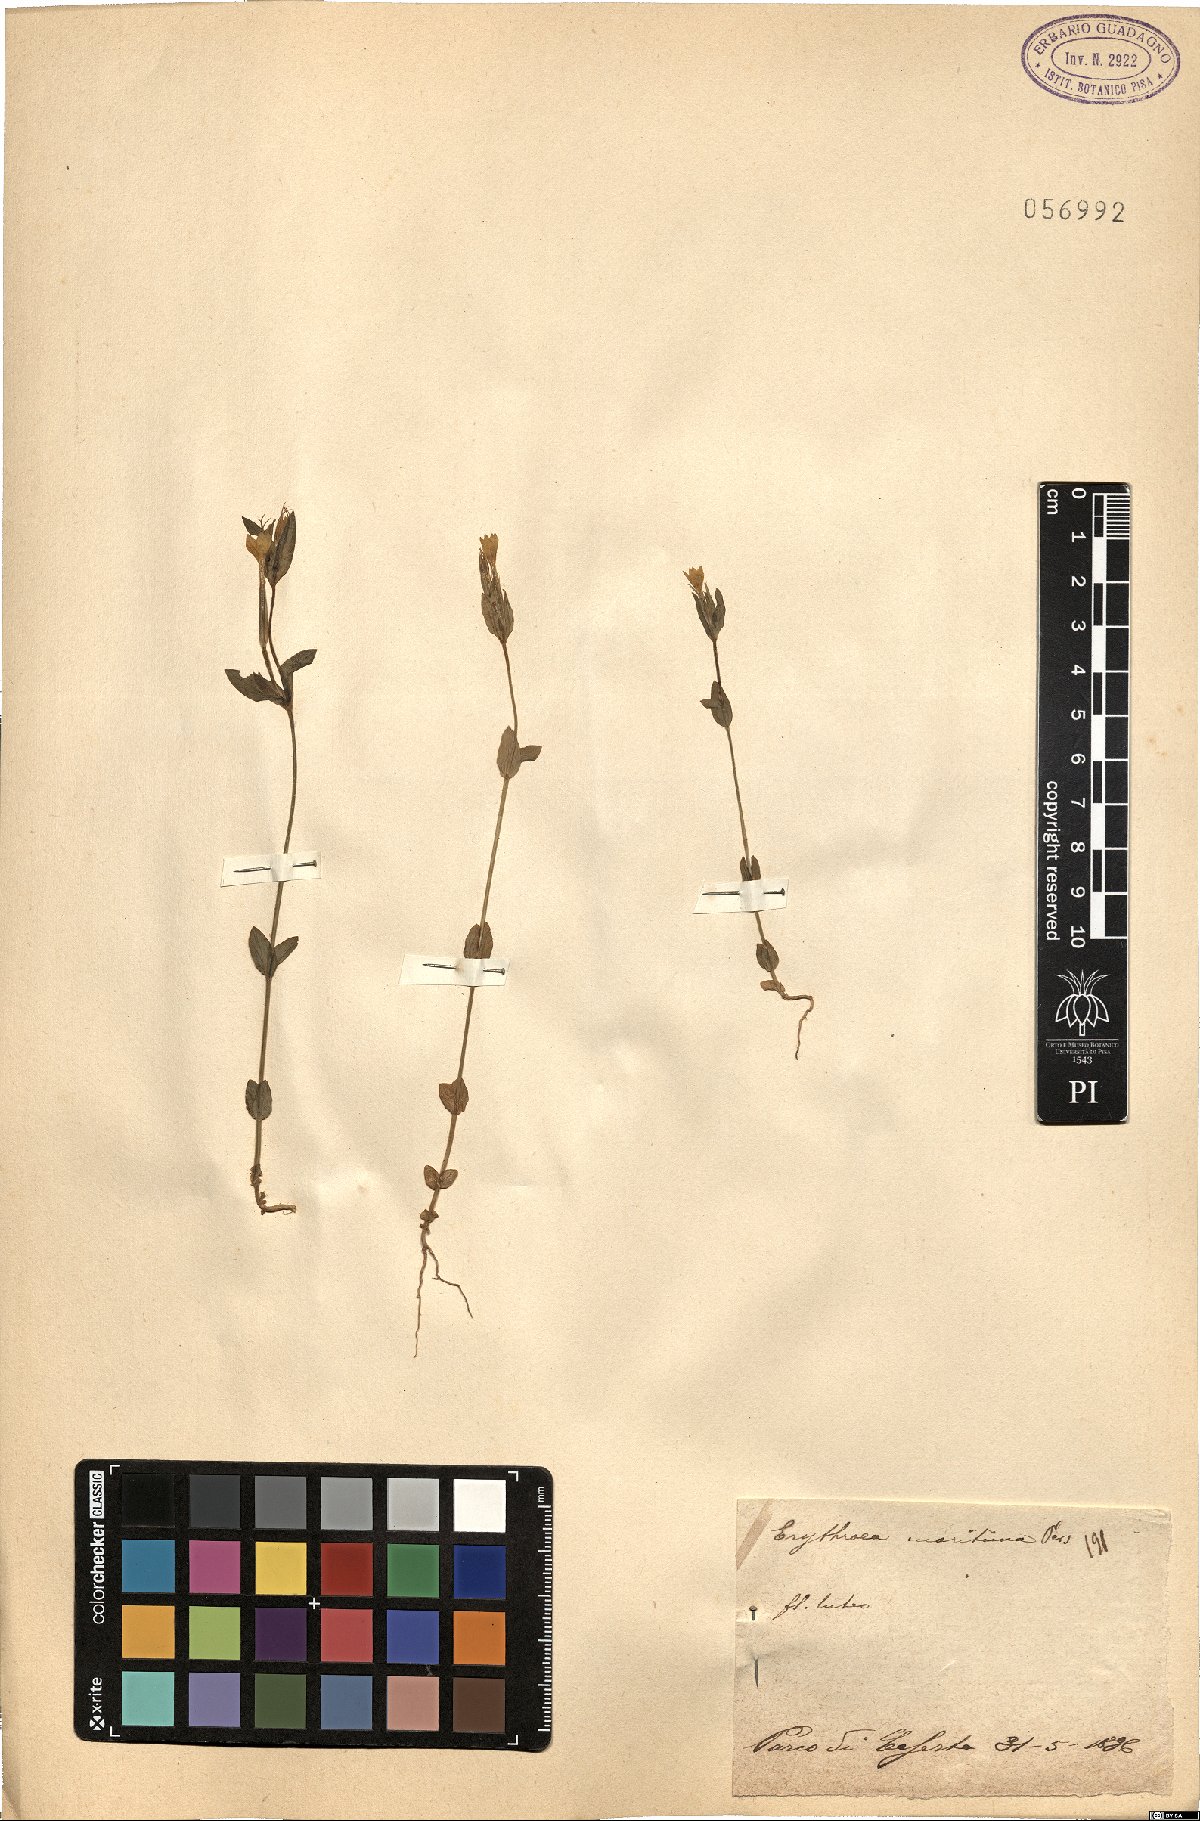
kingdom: Plantae
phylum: Tracheophyta
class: Magnoliopsida
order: Gentianales
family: Gentianaceae
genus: Centaurium
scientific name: Centaurium maritimum
